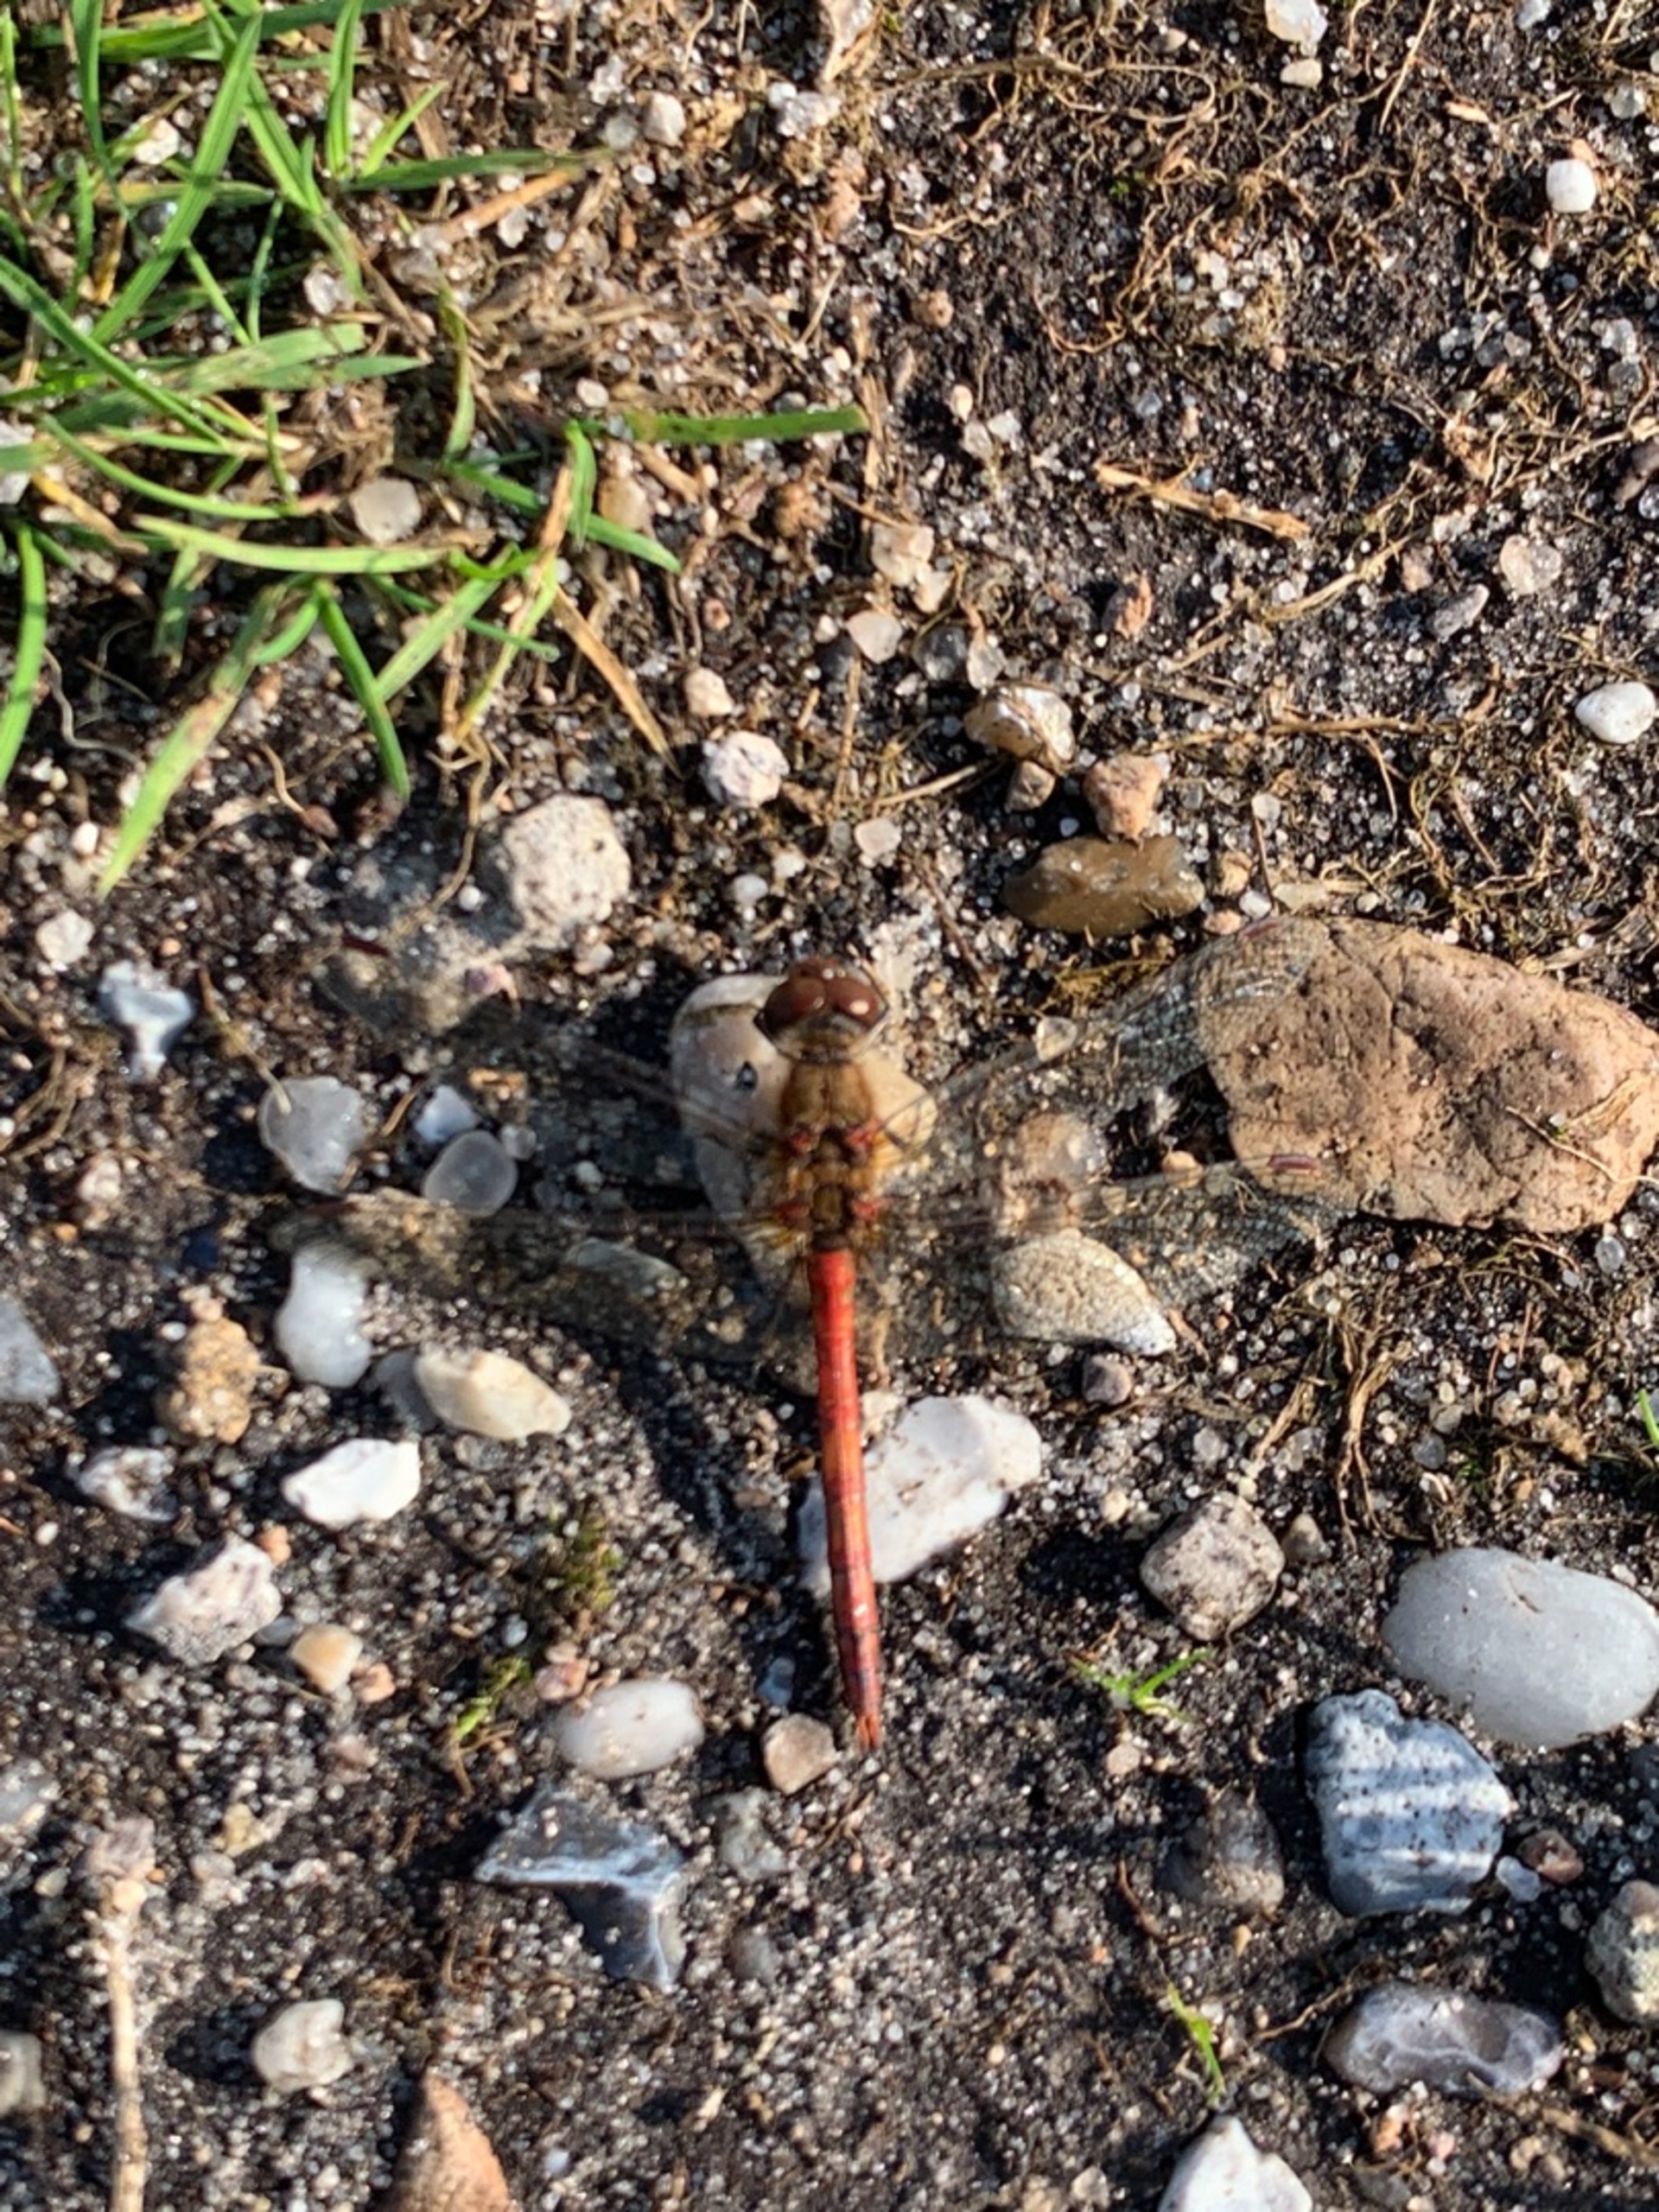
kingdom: Animalia
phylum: Arthropoda
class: Insecta
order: Odonata
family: Libellulidae
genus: Sympetrum
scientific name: Sympetrum
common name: Hedelibeller
